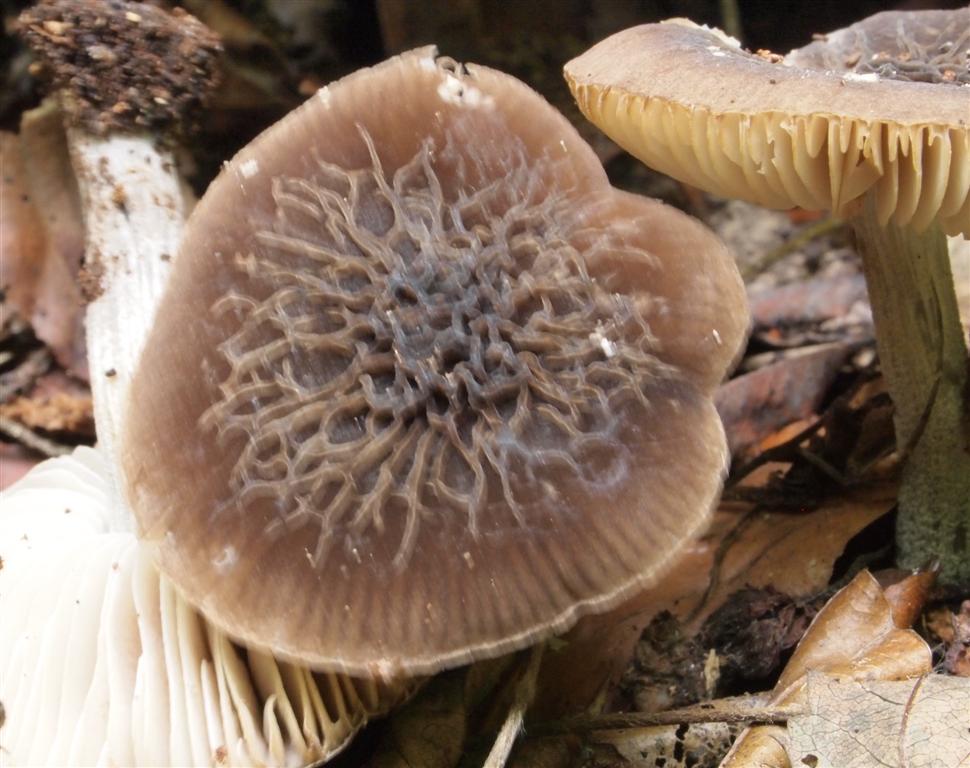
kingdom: Fungi
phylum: Basidiomycota
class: Agaricomycetes
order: Agaricales
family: Pluteaceae
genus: Pluteus
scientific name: Pluteus
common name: gråstokket skærmhat
